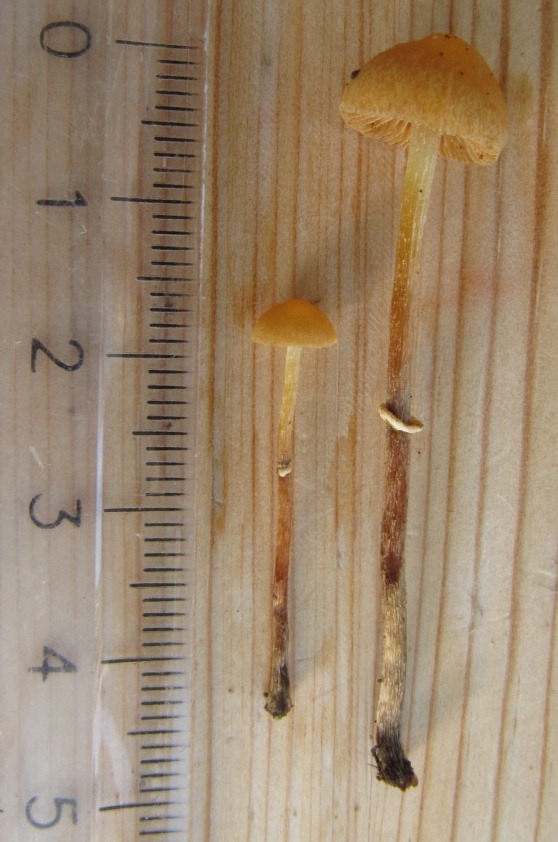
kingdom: Fungi
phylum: Basidiomycota
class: Agaricomycetes
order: Agaricales
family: Bolbitiaceae
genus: Pholiotina
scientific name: Pholiotina teneroides
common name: tosporet dansehat
